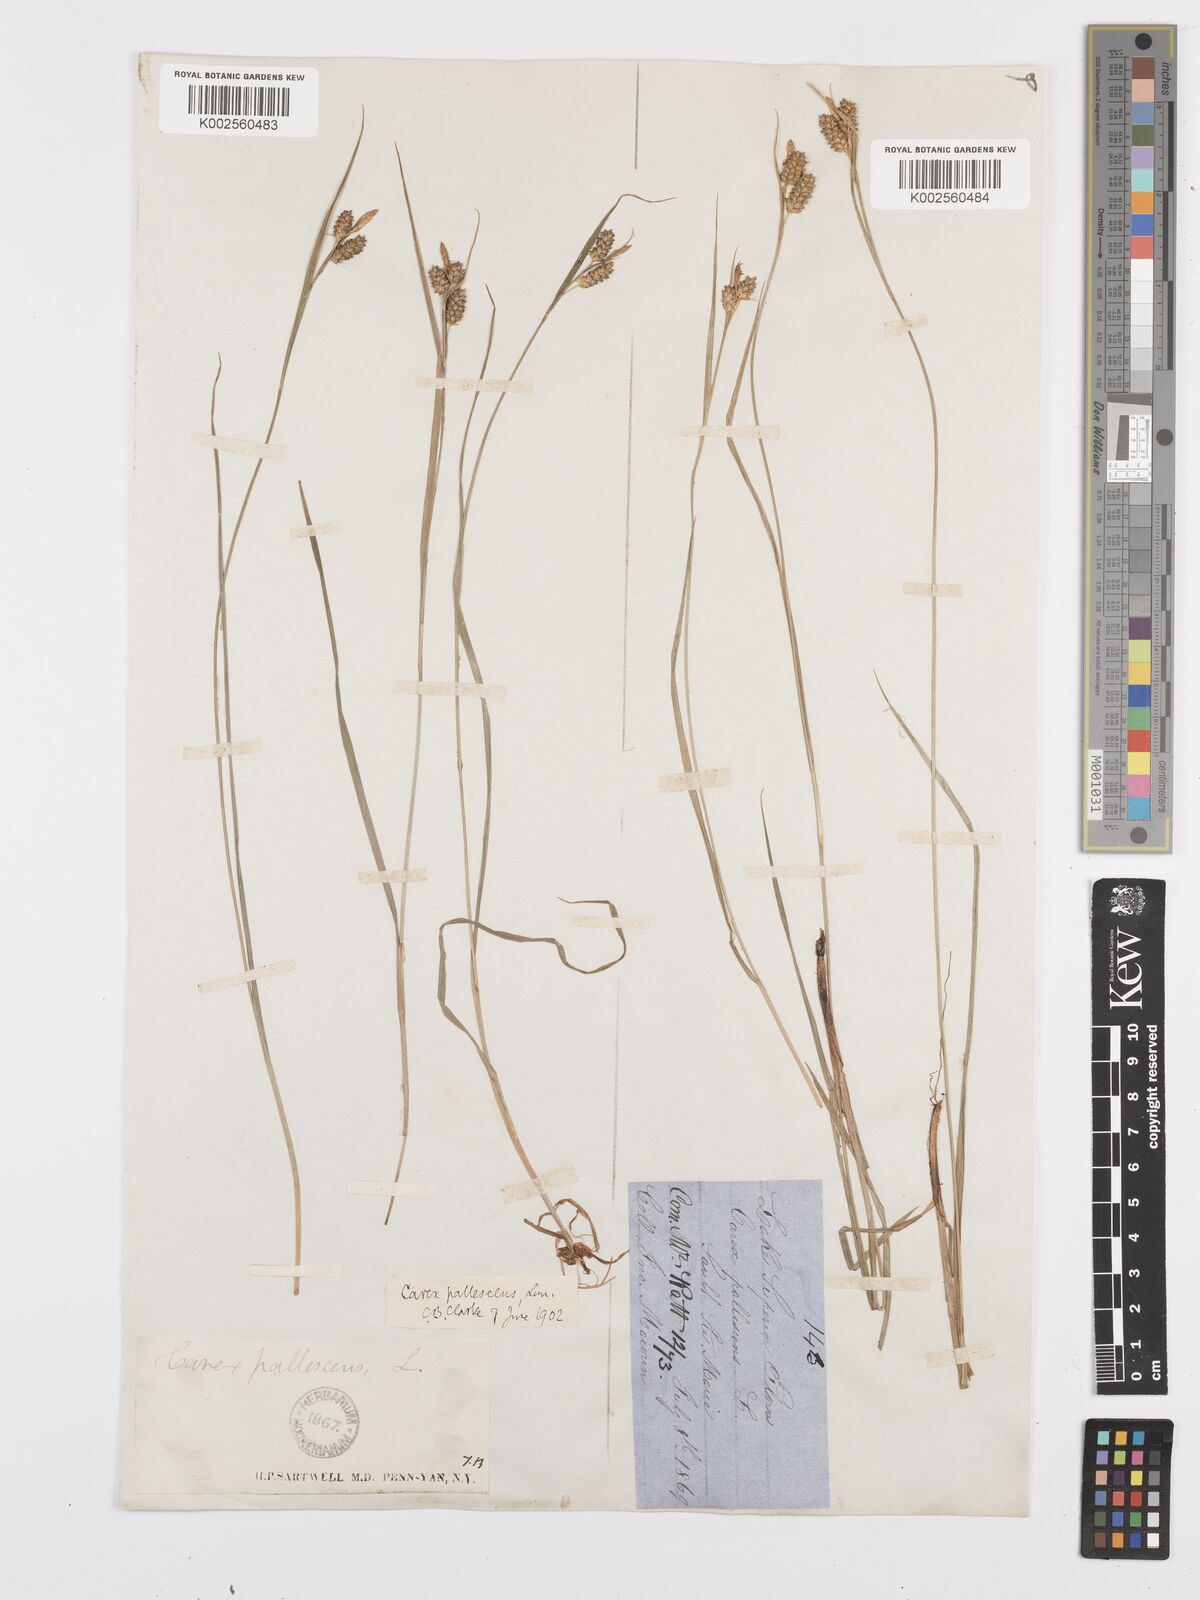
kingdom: Plantae
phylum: Tracheophyta
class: Liliopsida
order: Poales
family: Cyperaceae
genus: Carex
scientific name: Carex pallescens
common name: Pale sedge
